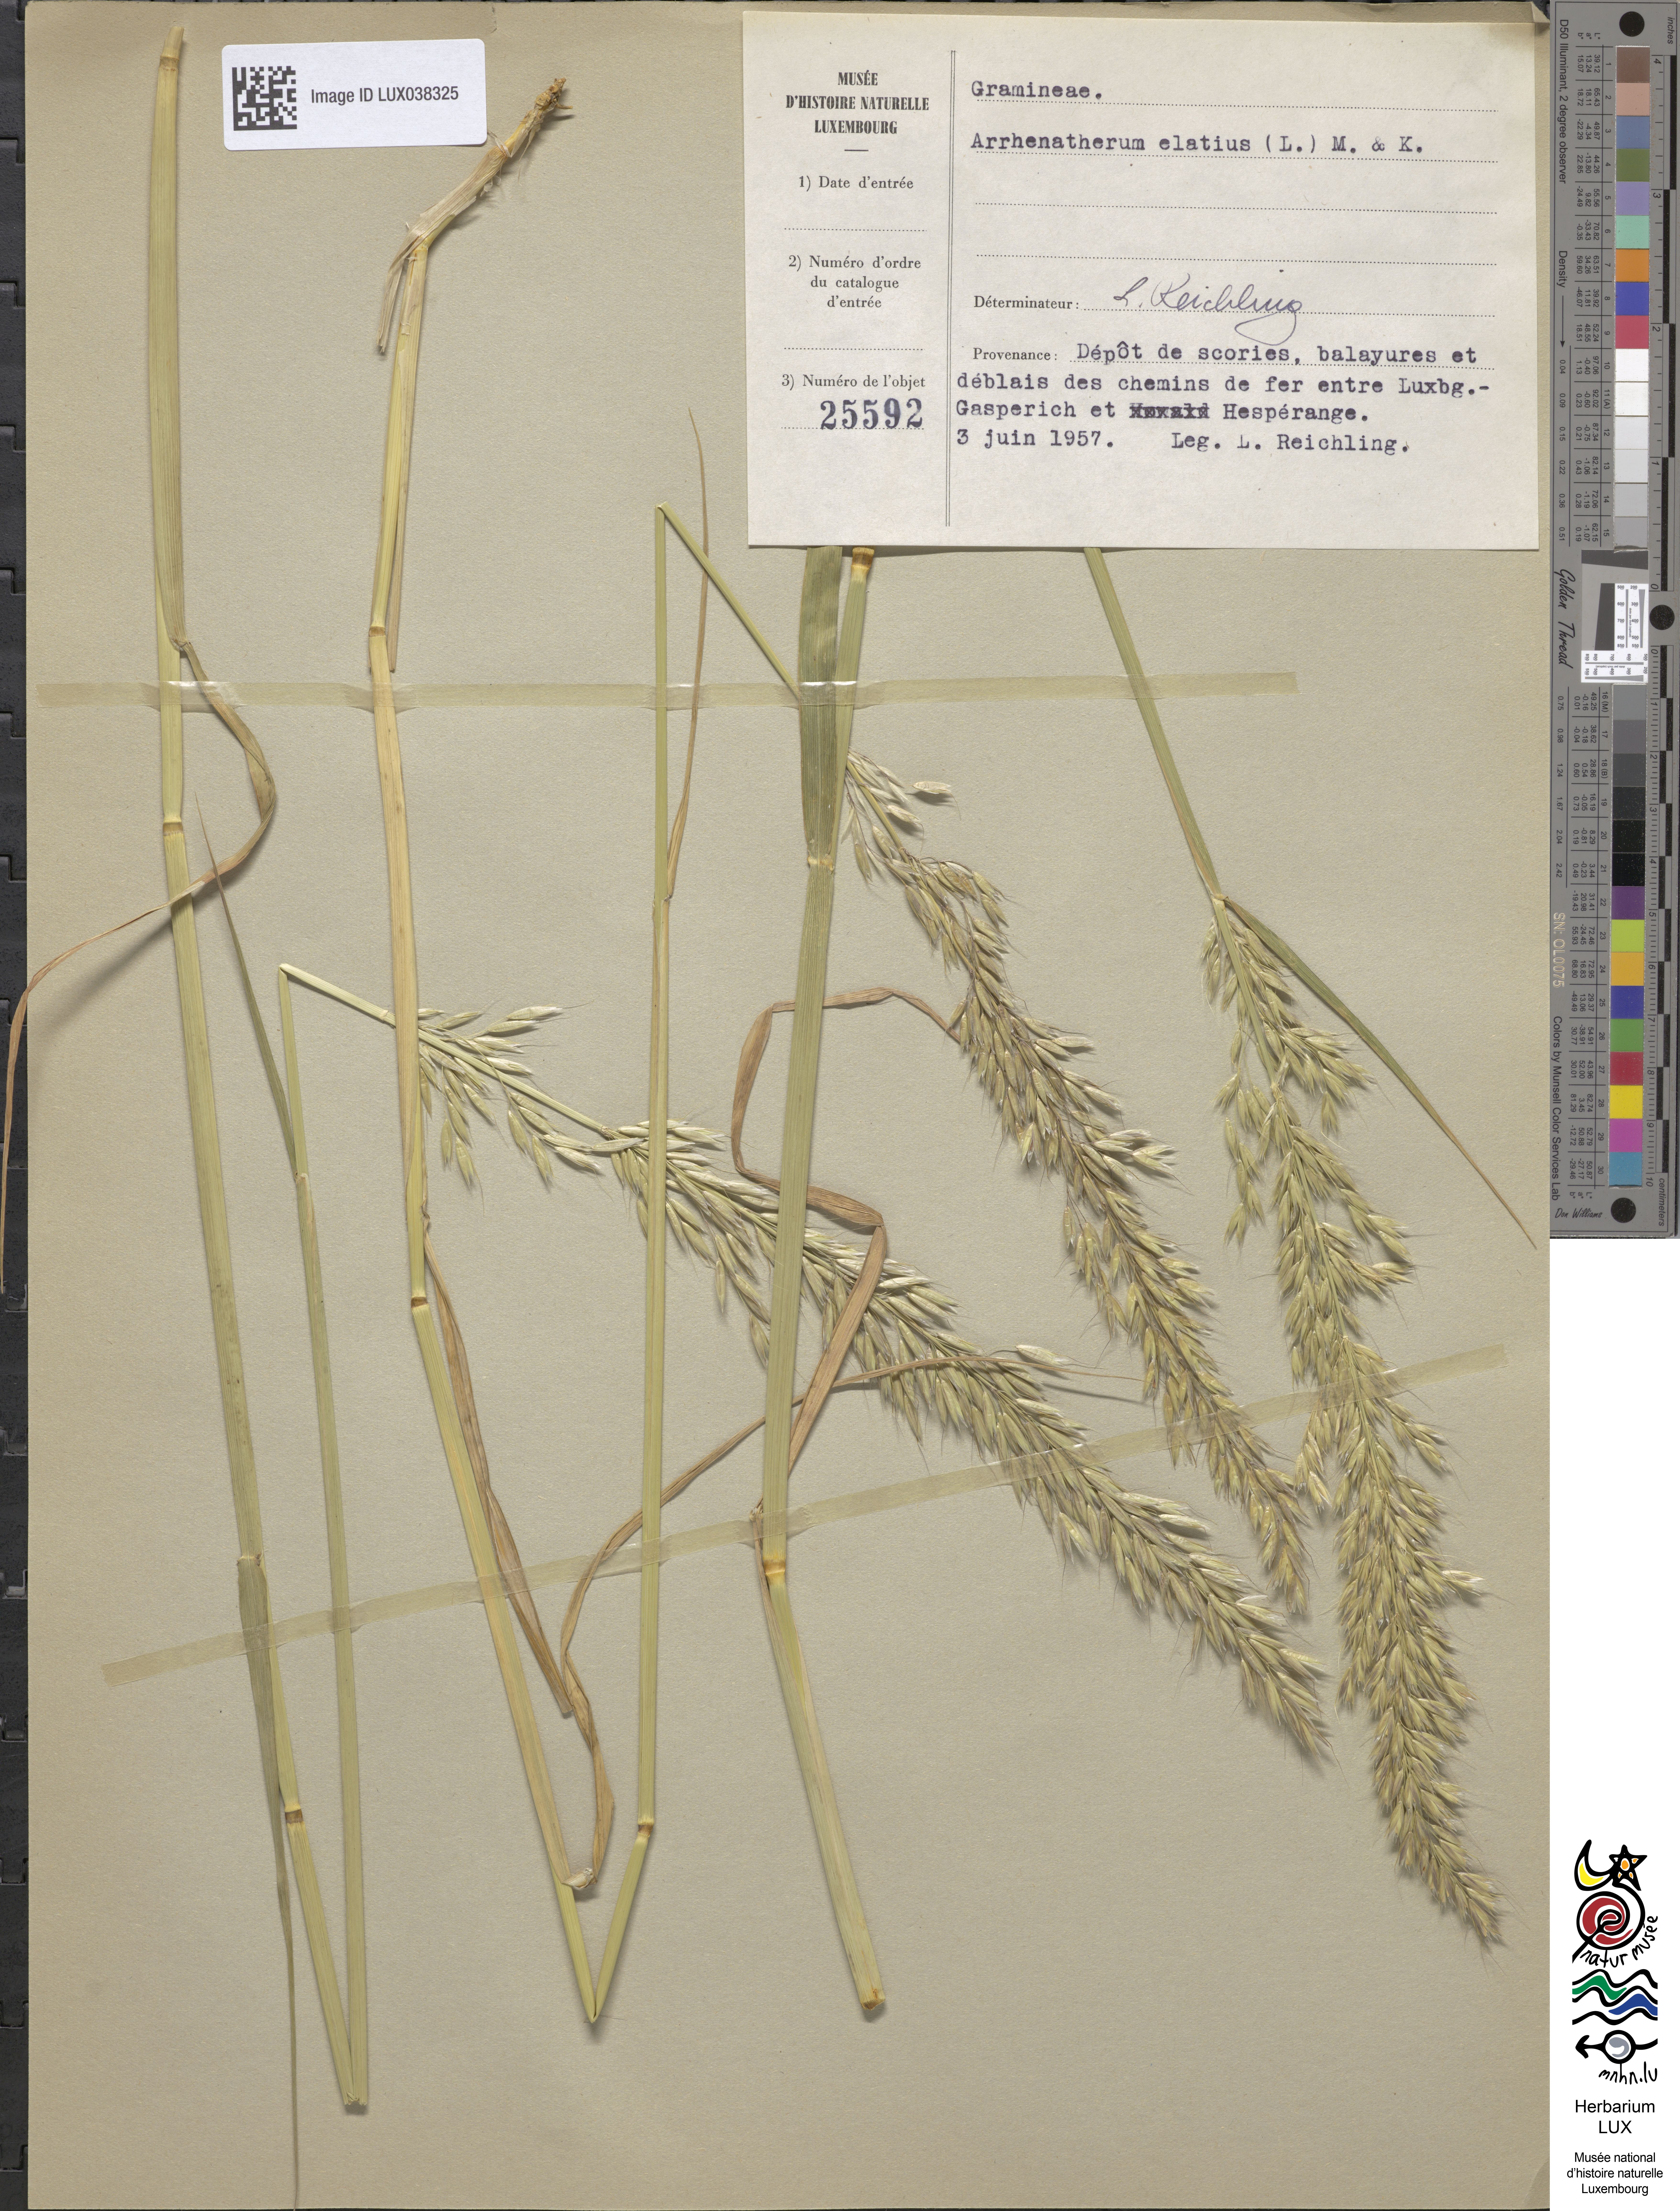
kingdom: Plantae
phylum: Tracheophyta
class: Liliopsida
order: Poales
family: Poaceae
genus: Arrhenatherum
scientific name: Arrhenatherum elatius
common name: Tall oatgrass
